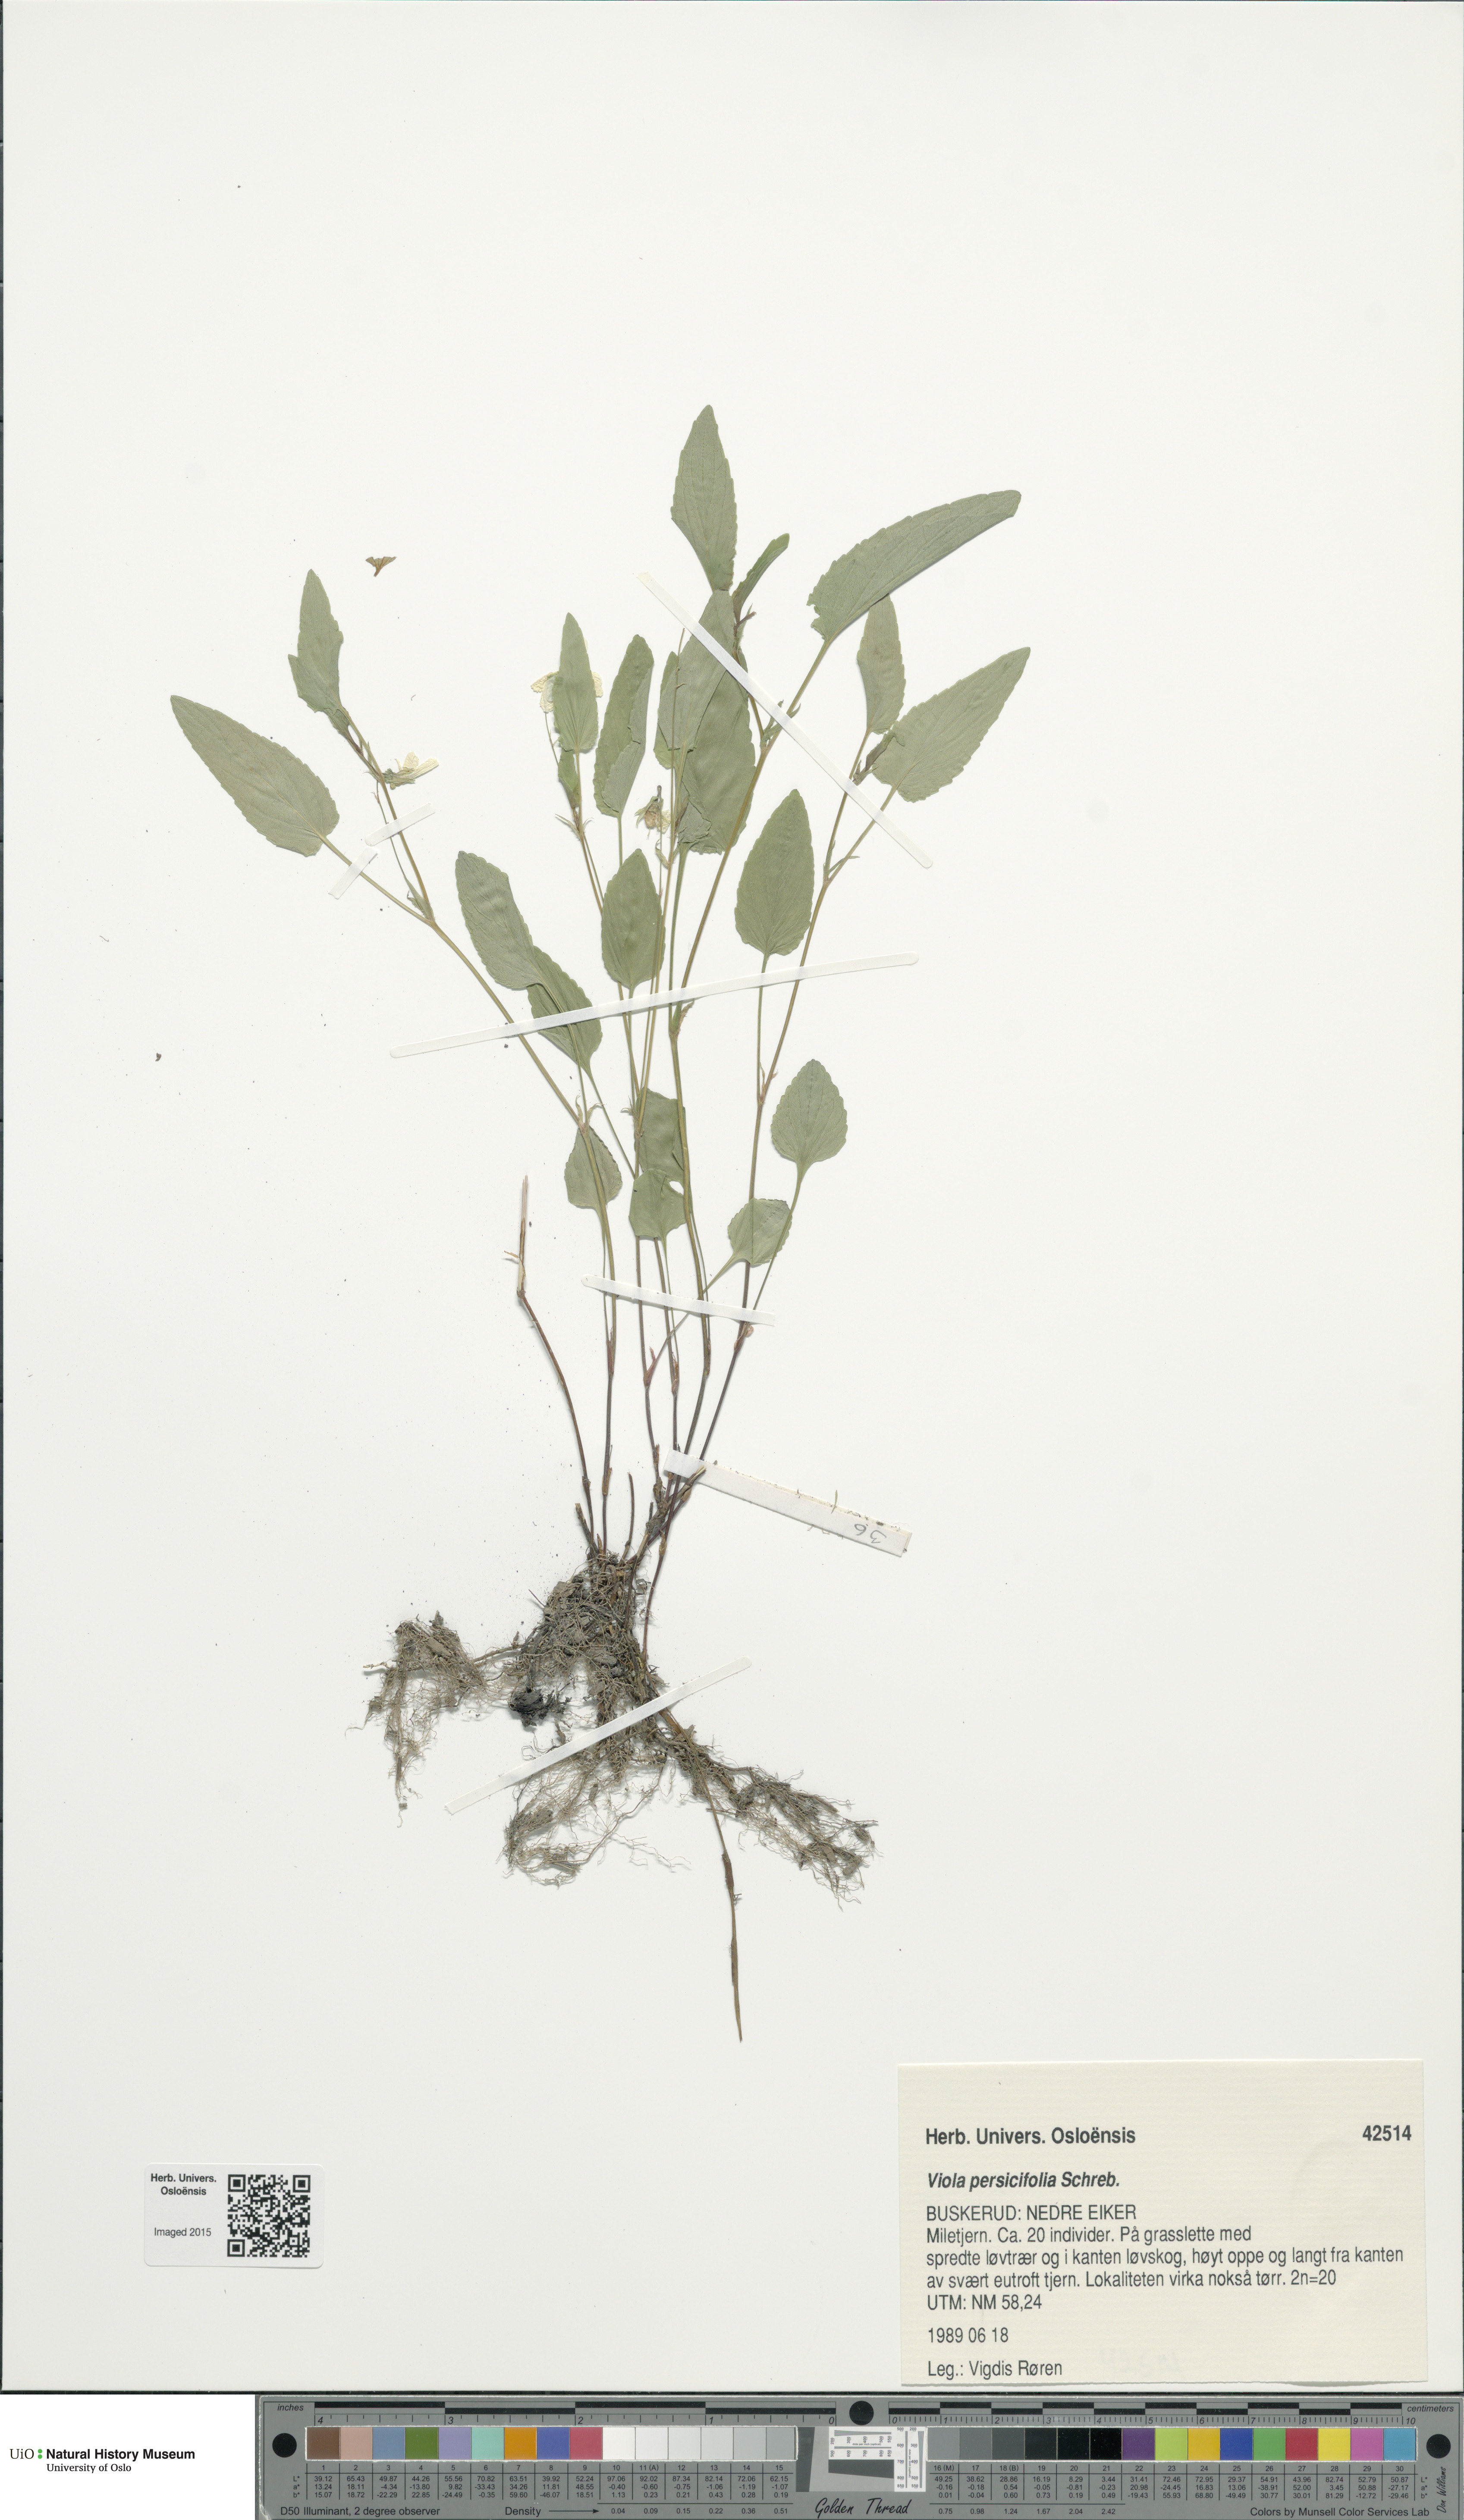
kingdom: Plantae
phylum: Tracheophyta
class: Magnoliopsida
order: Malpighiales
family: Violaceae
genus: Viola
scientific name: Viola stagnina
